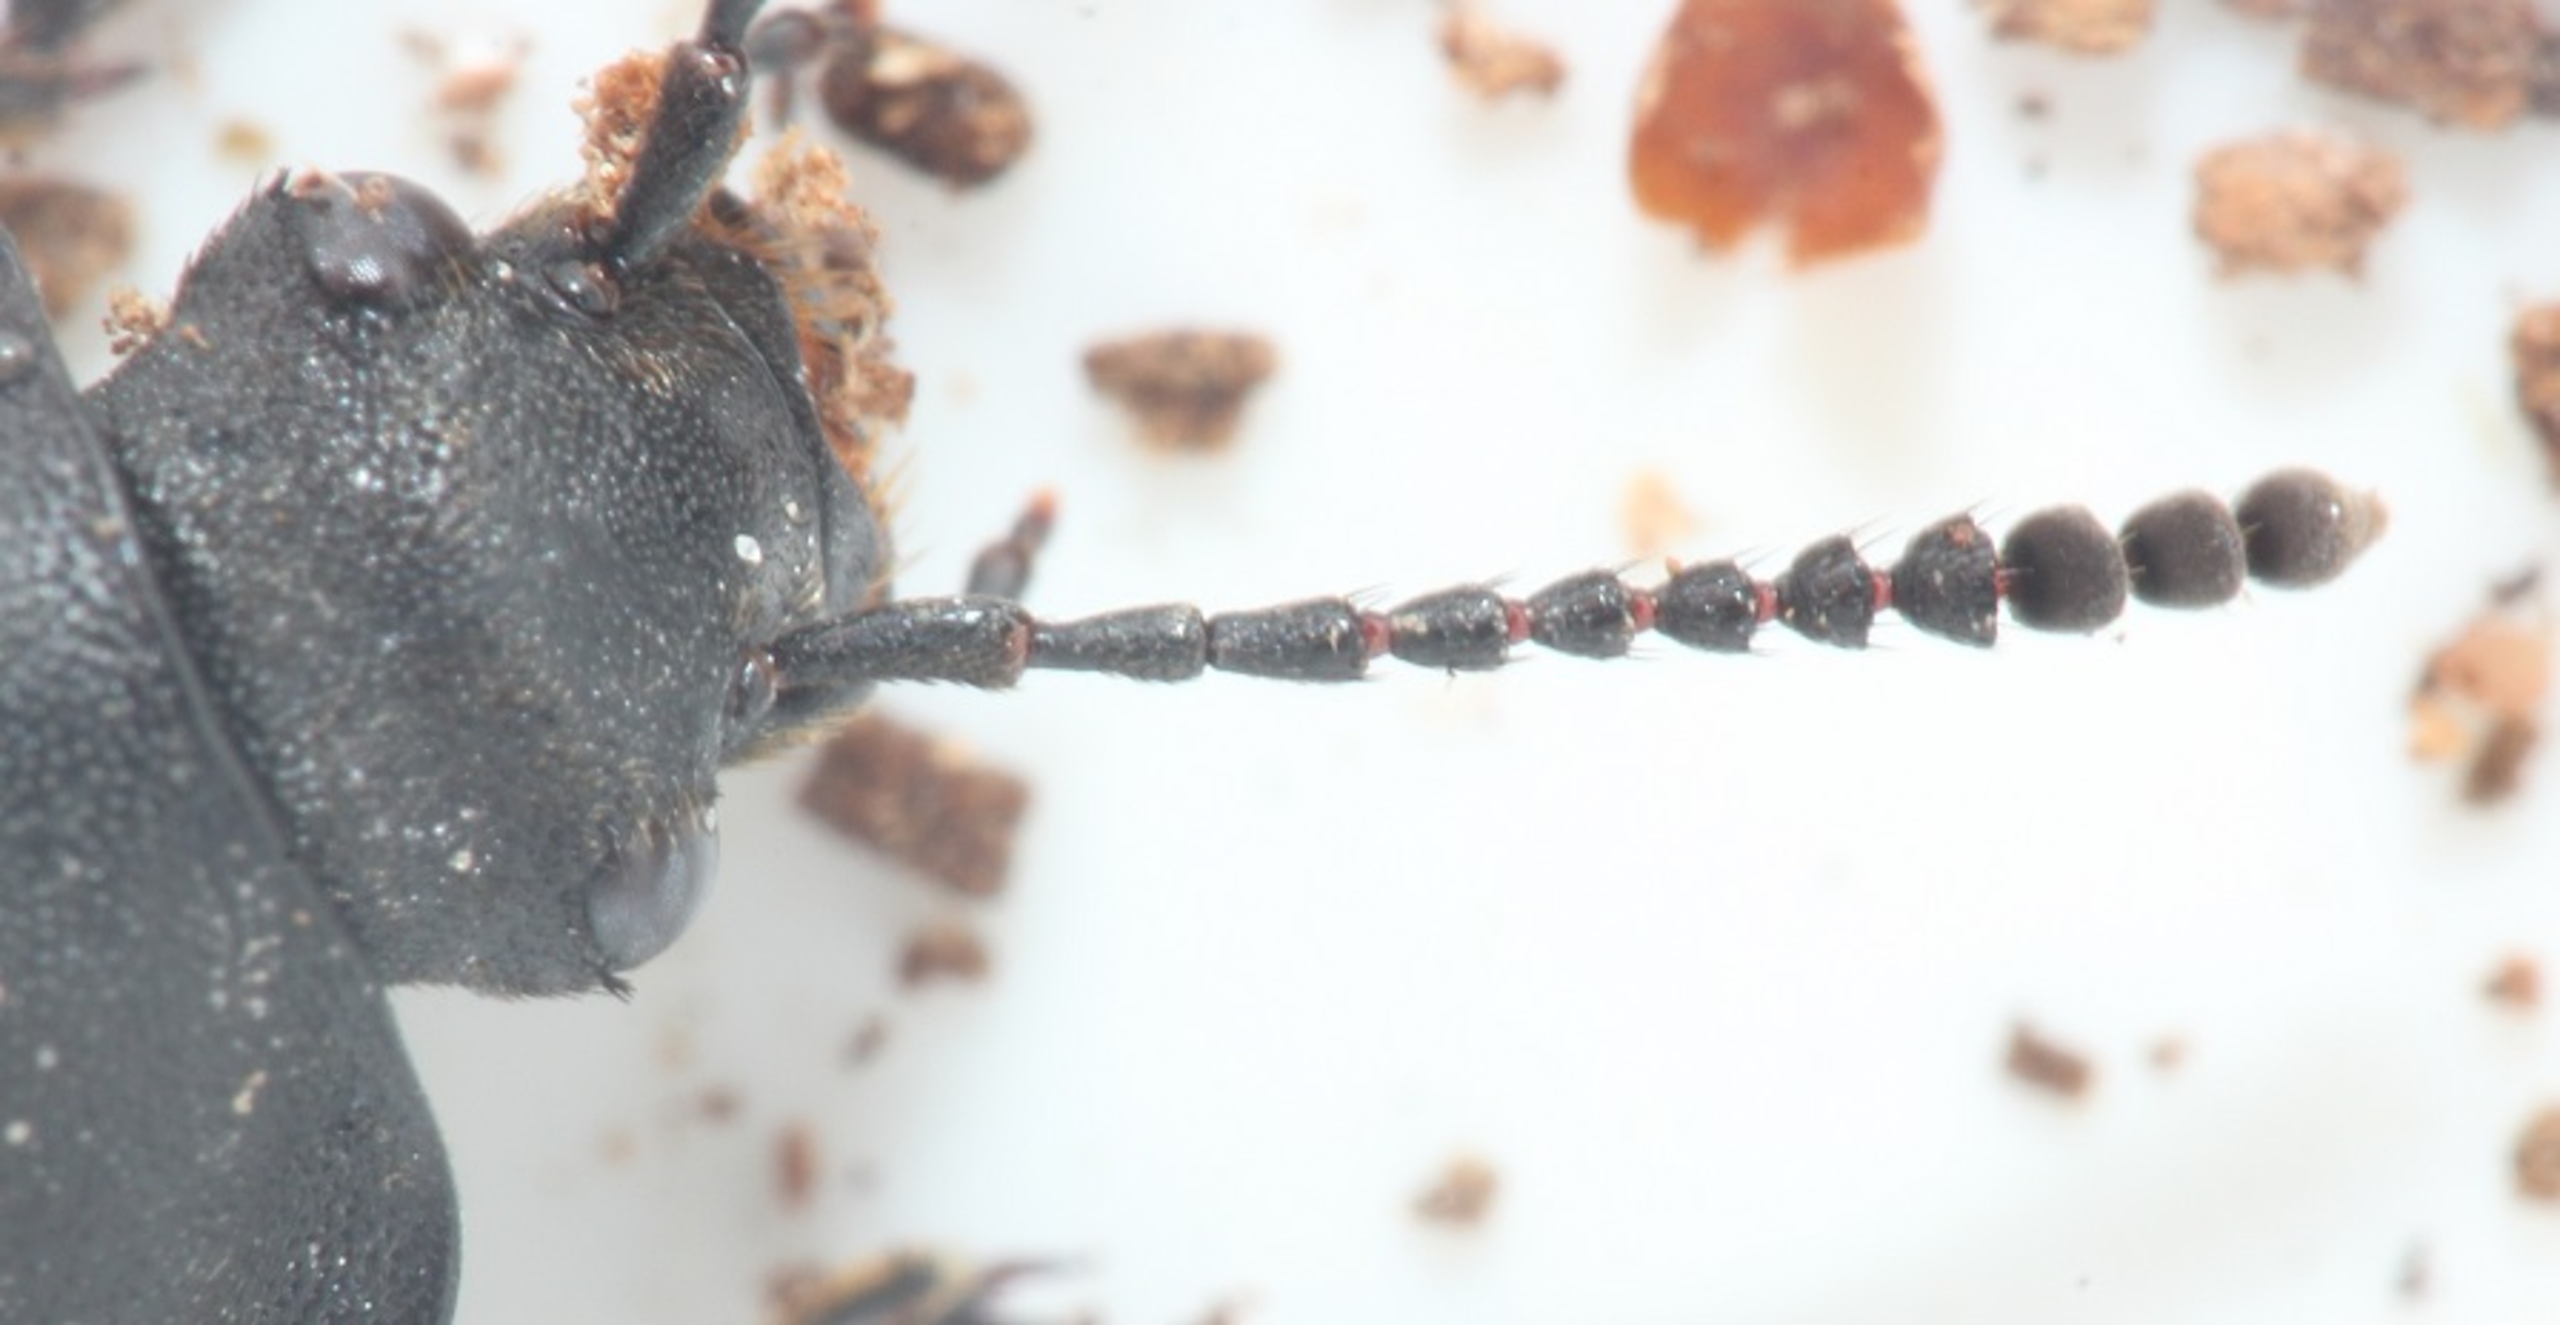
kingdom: Animalia
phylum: Arthropoda
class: Insecta
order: Coleoptera
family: Staphylinidae
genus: Silpha
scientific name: Silpha tristis
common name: Kornet ådselbille
